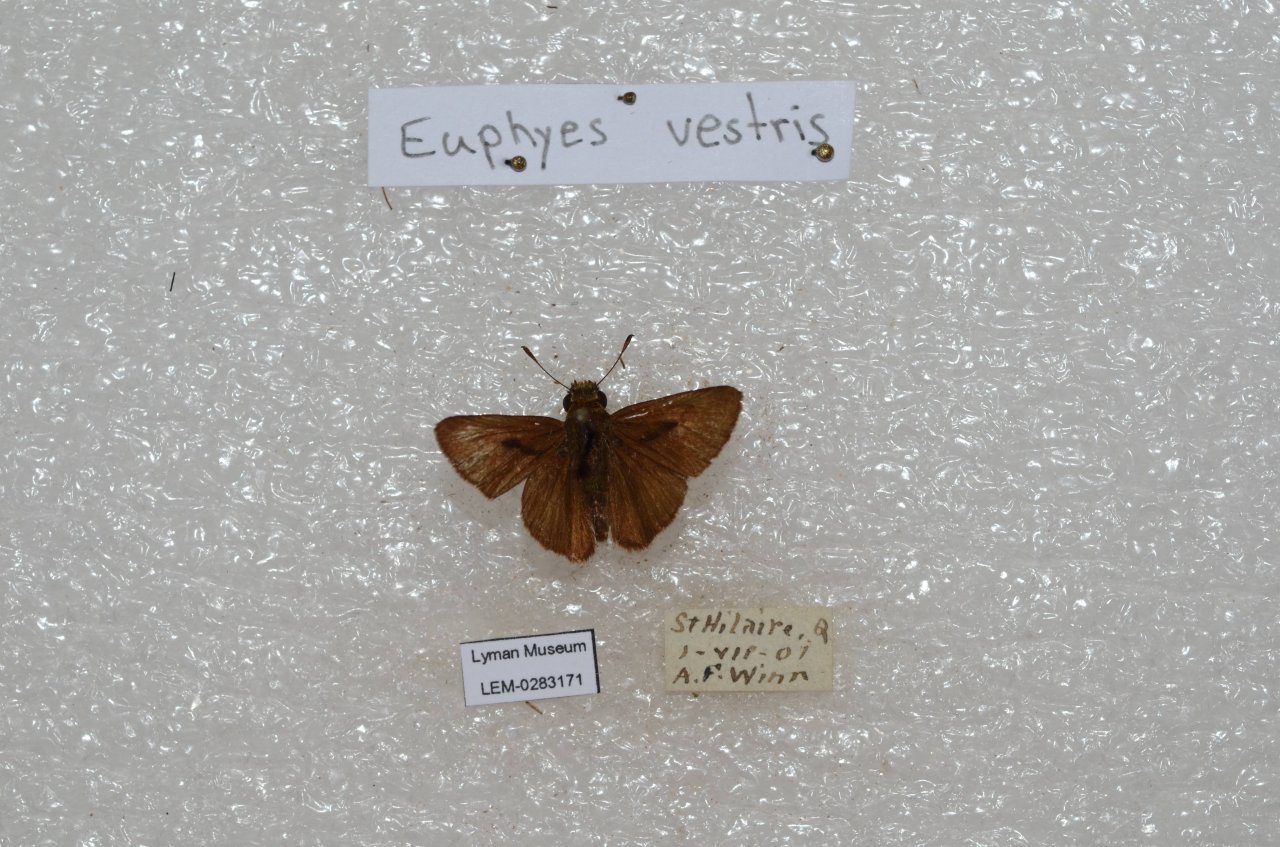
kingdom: Animalia
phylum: Arthropoda
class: Insecta
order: Lepidoptera
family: Hesperiidae
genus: Euphyes
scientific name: Euphyes vestris
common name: Dun Skipper
